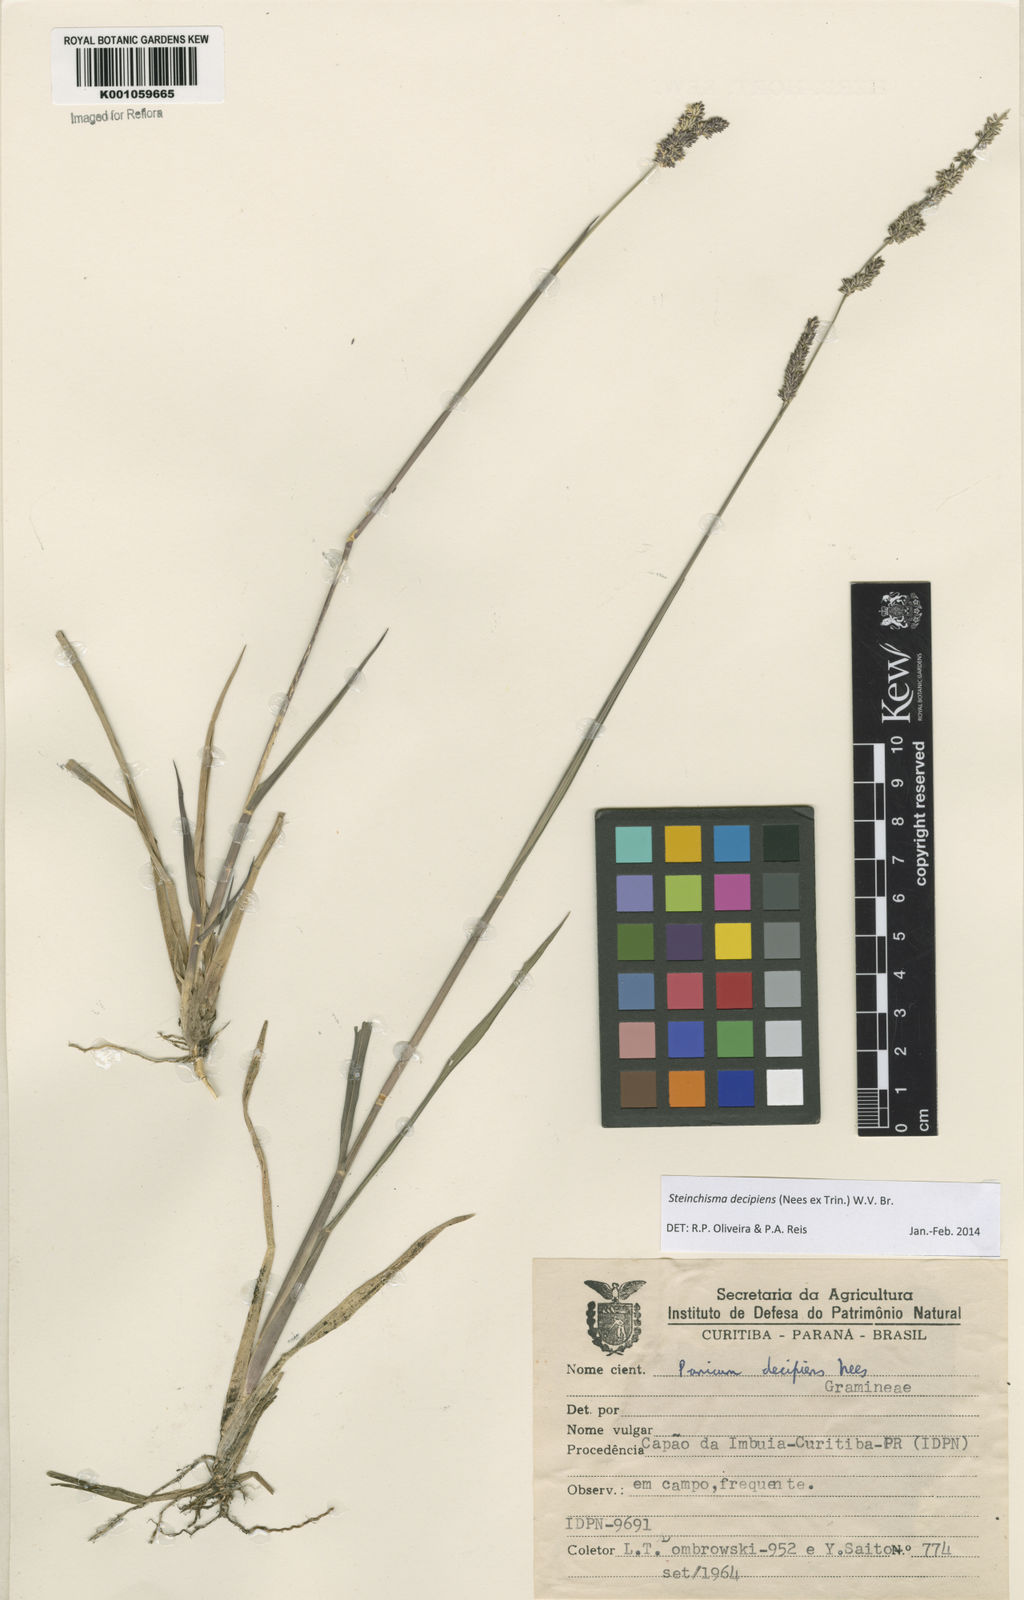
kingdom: Plantae
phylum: Tracheophyta
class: Liliopsida
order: Poales
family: Poaceae
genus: Steinchisma
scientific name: Steinchisma decipiens
